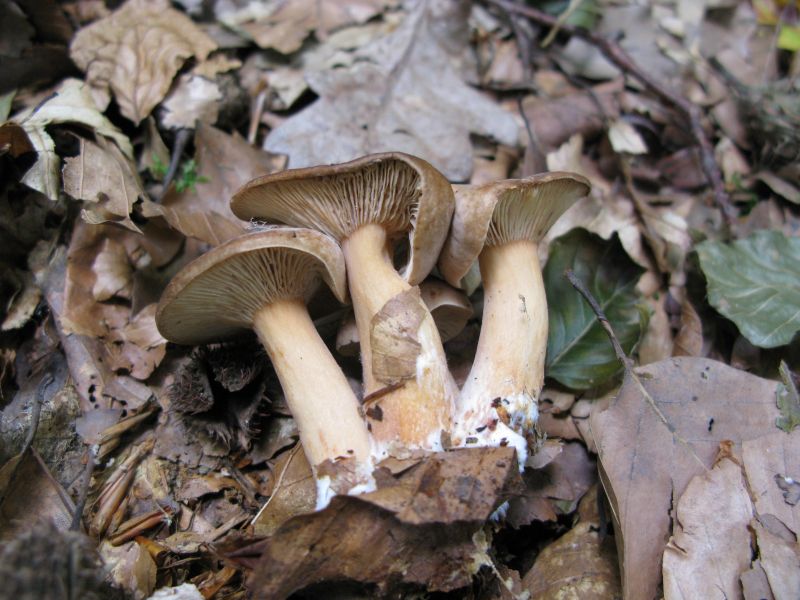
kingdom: Fungi
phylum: Basidiomycota
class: Agaricomycetes
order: Russulales
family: Russulaceae
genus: Lactarius
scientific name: Lactarius subdulcis
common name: sødlig mælkehat
